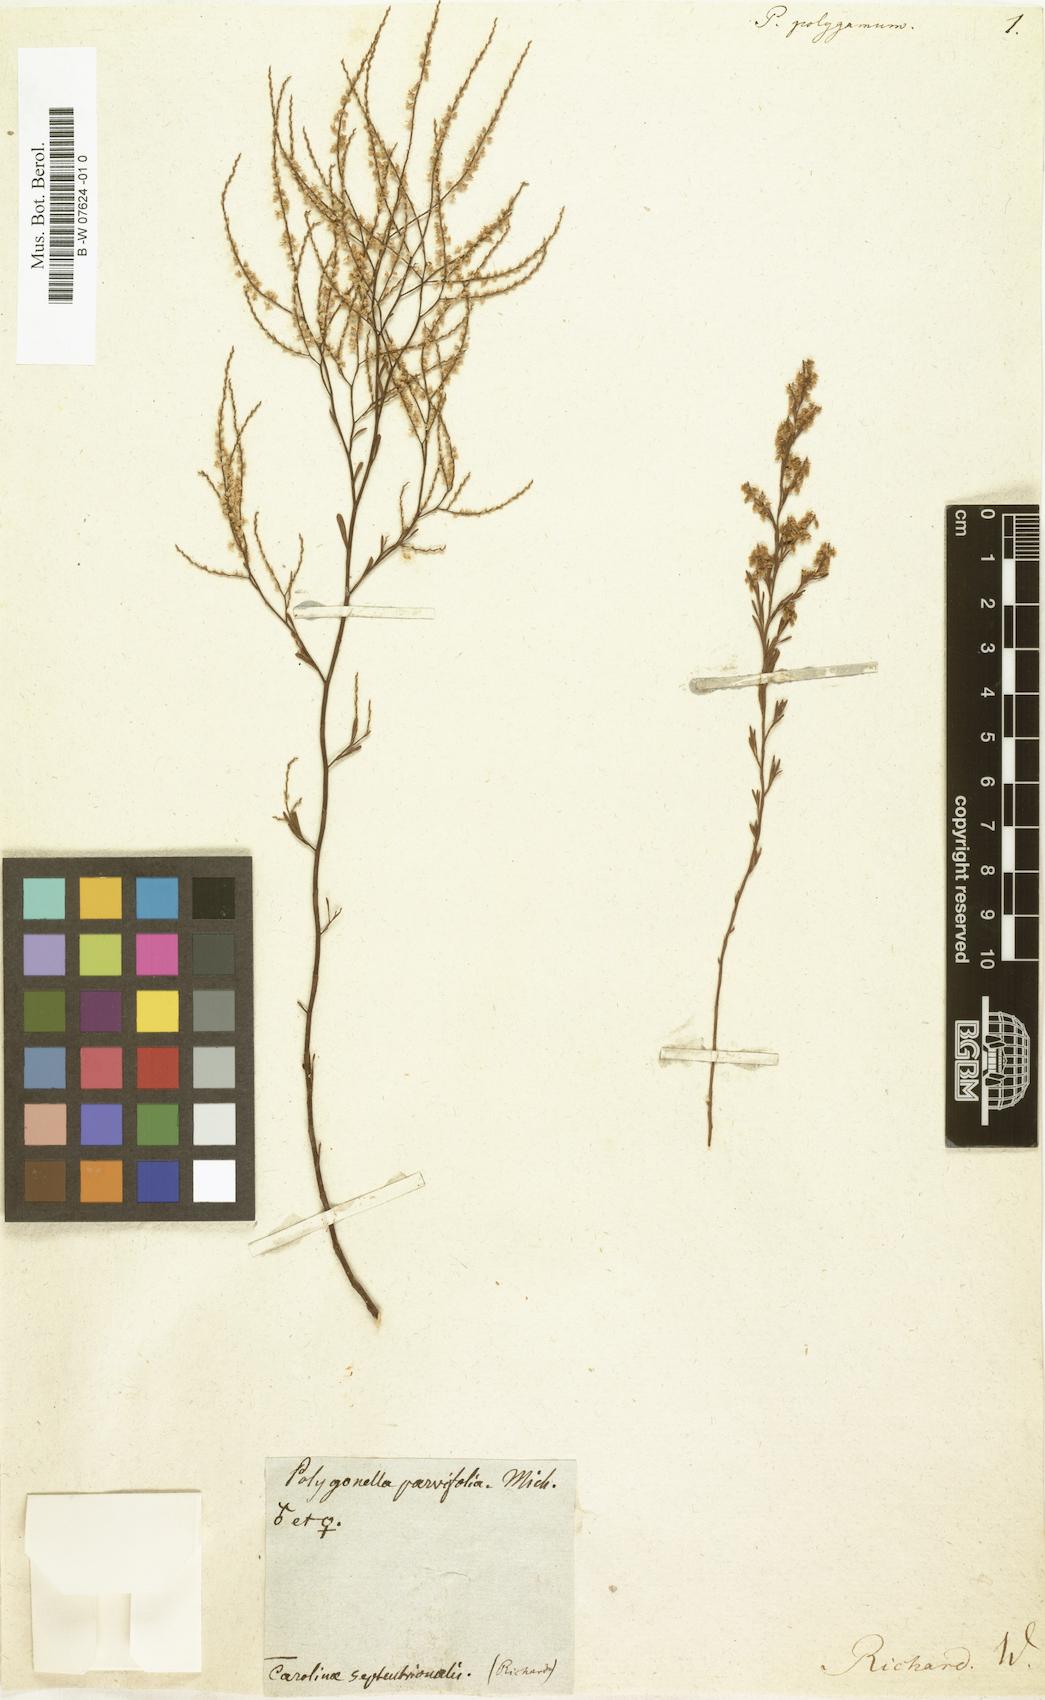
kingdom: Plantae
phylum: Tracheophyta
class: Magnoliopsida
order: Caryophyllales
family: Polygonaceae
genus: Polygonella
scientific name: Polygonella polygama
